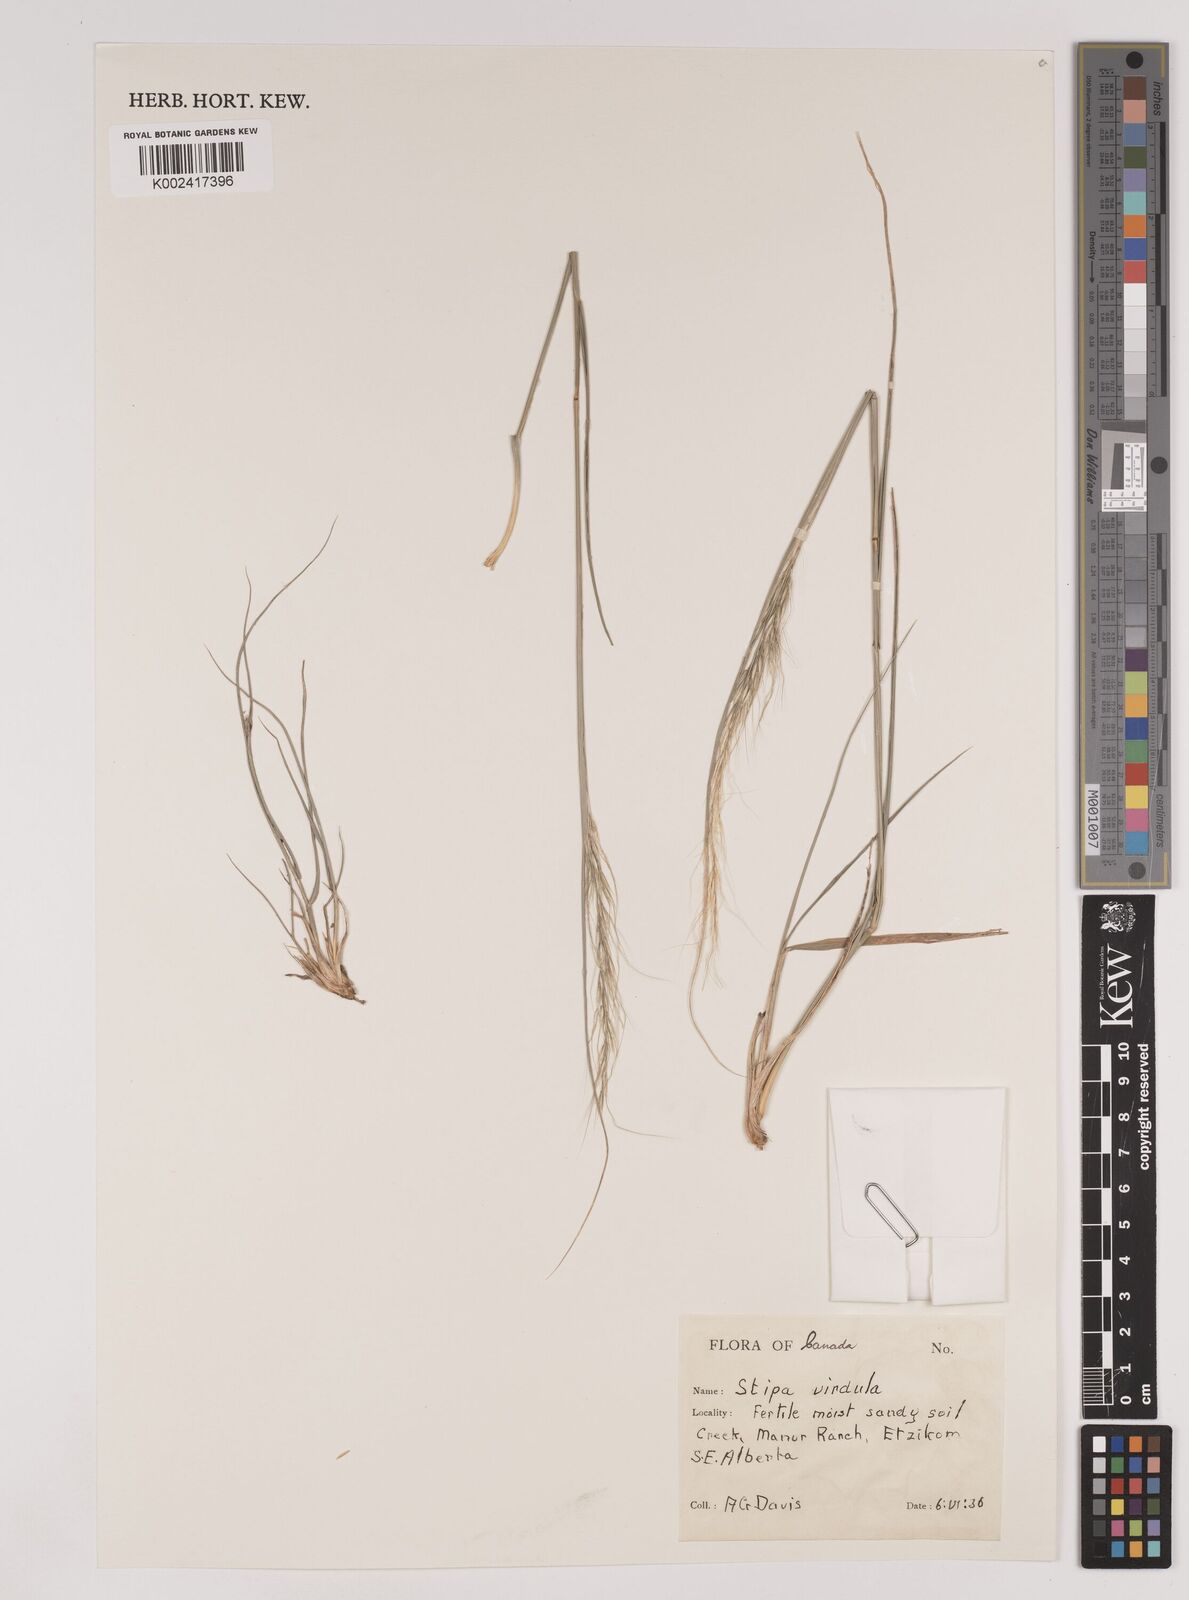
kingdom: Plantae
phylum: Tracheophyta
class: Liliopsida
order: Poales
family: Poaceae
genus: Nassella
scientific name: Nassella viridula
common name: Green needlegrass
